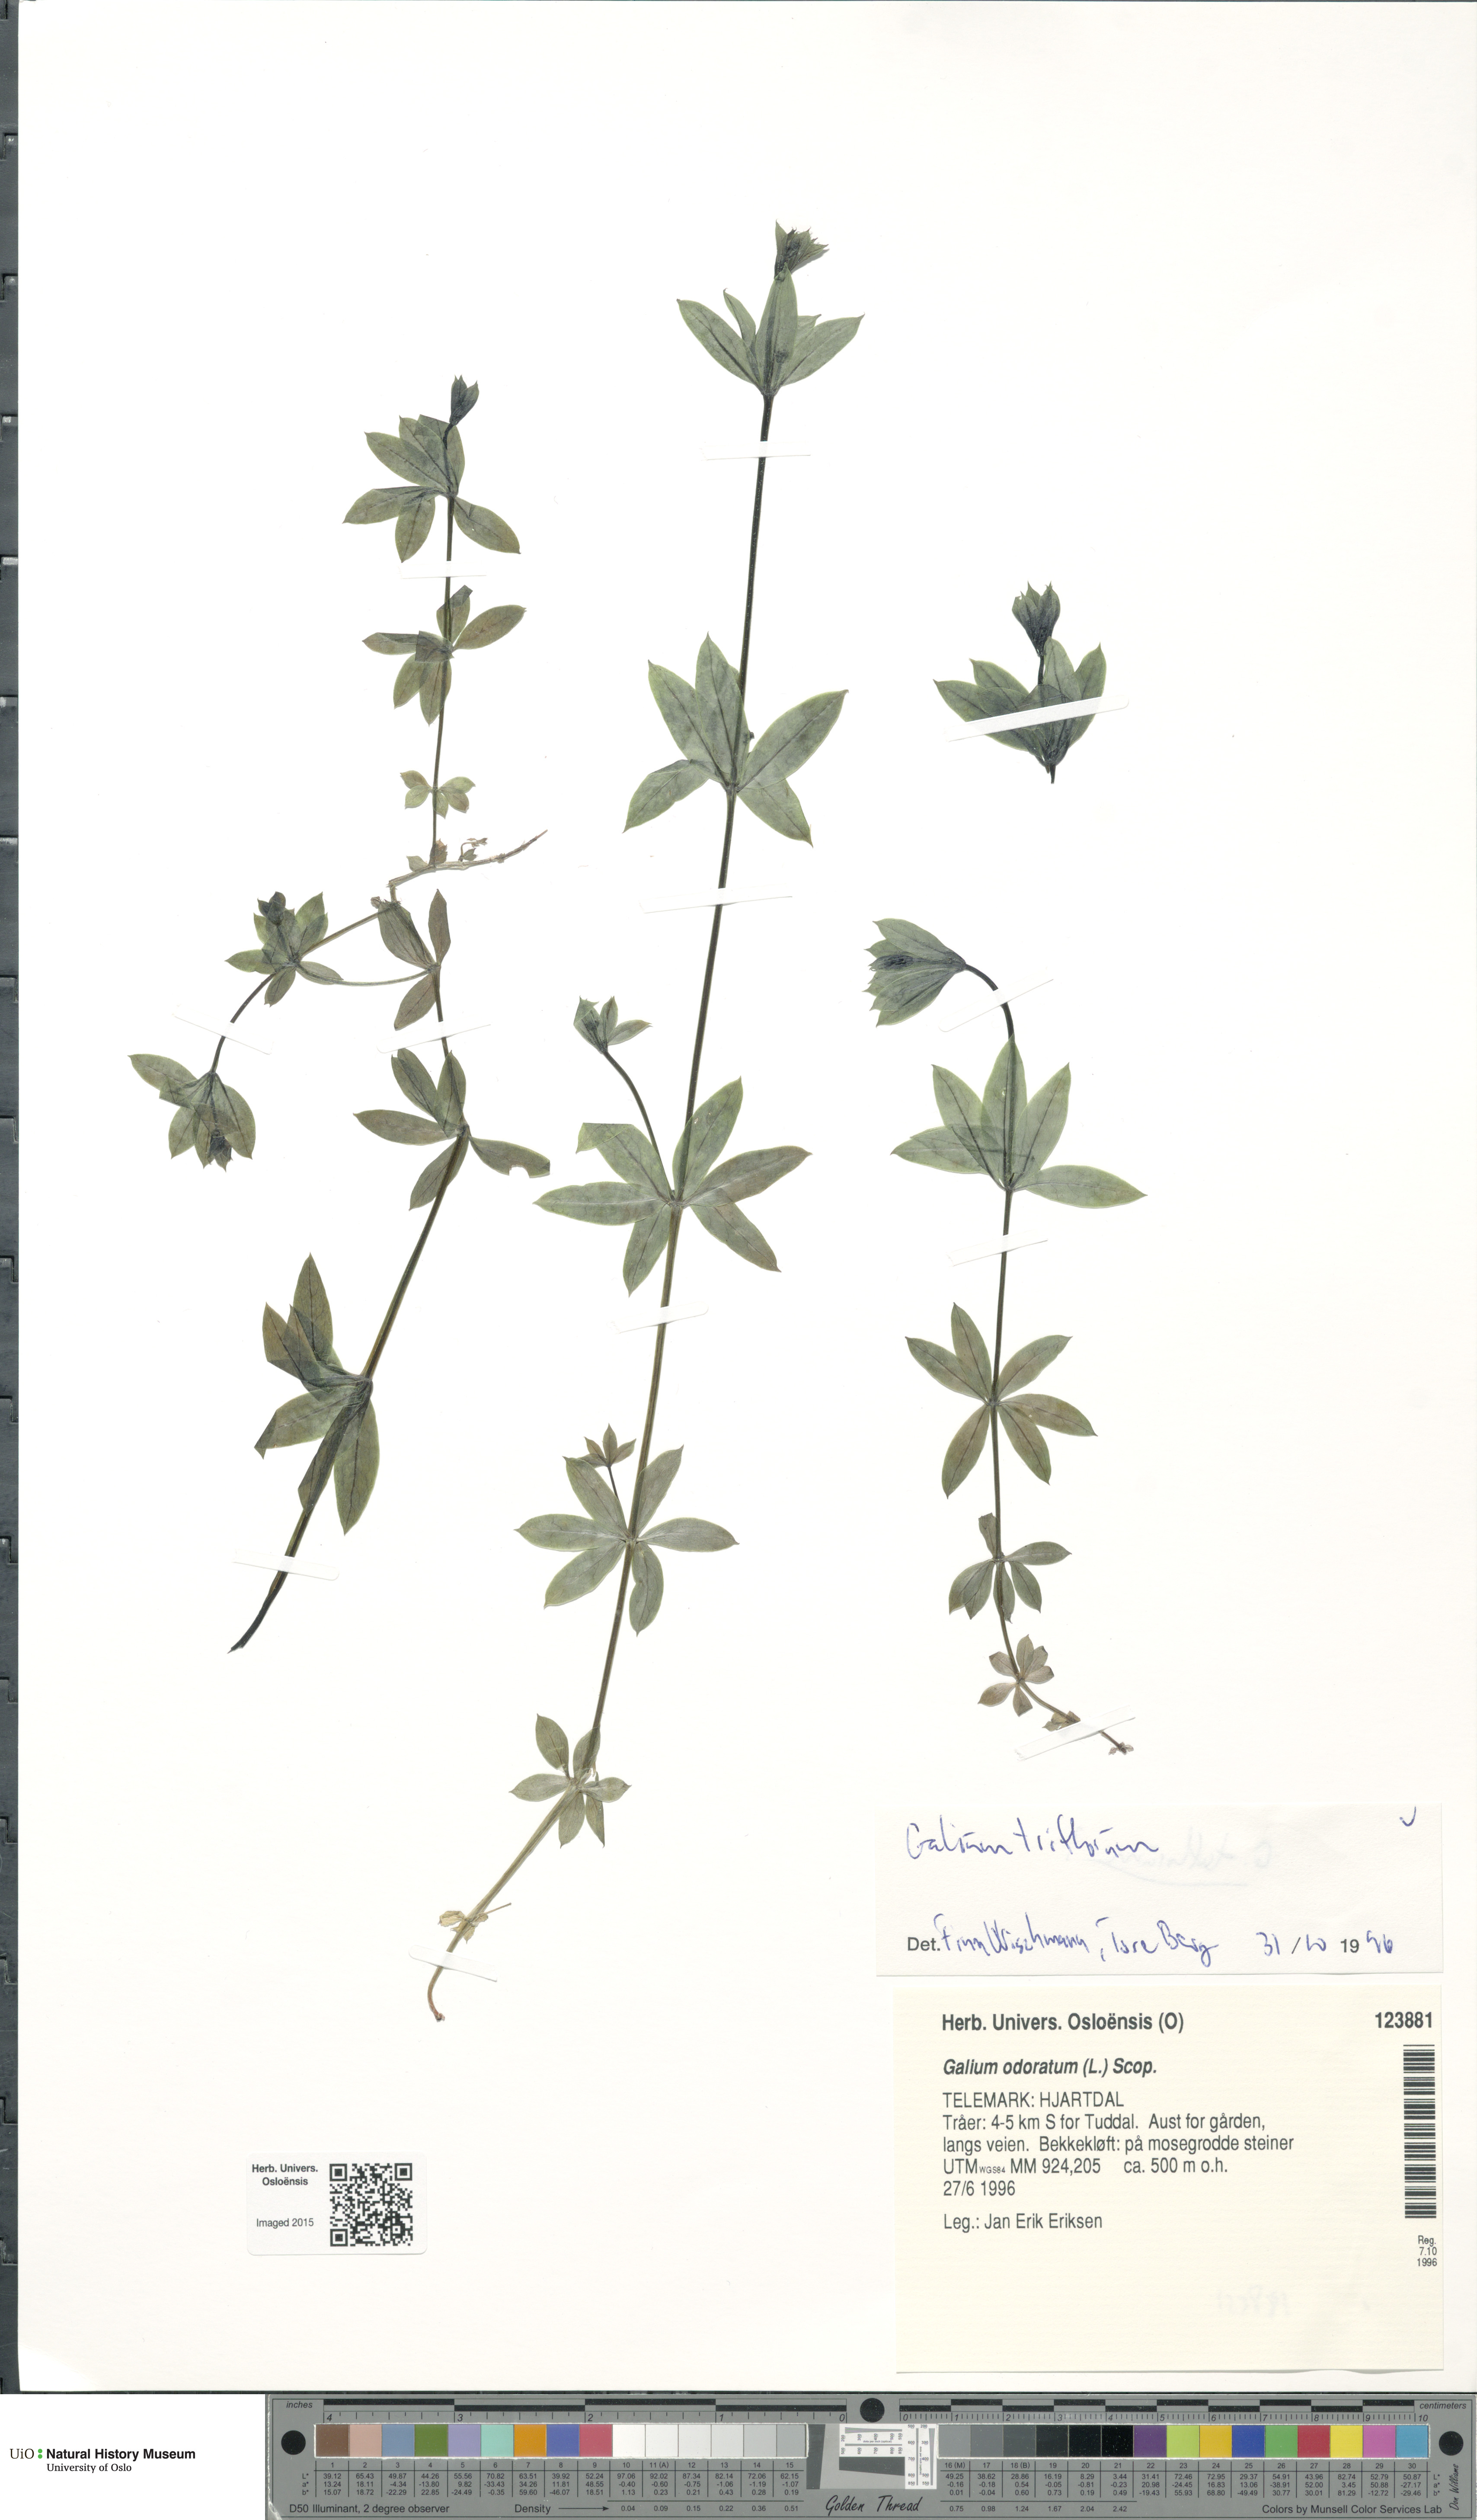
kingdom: Plantae
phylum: Tracheophyta
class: Magnoliopsida
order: Gentianales
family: Rubiaceae
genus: Galium
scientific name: Galium triflorum
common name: Fragrant bedstraw
